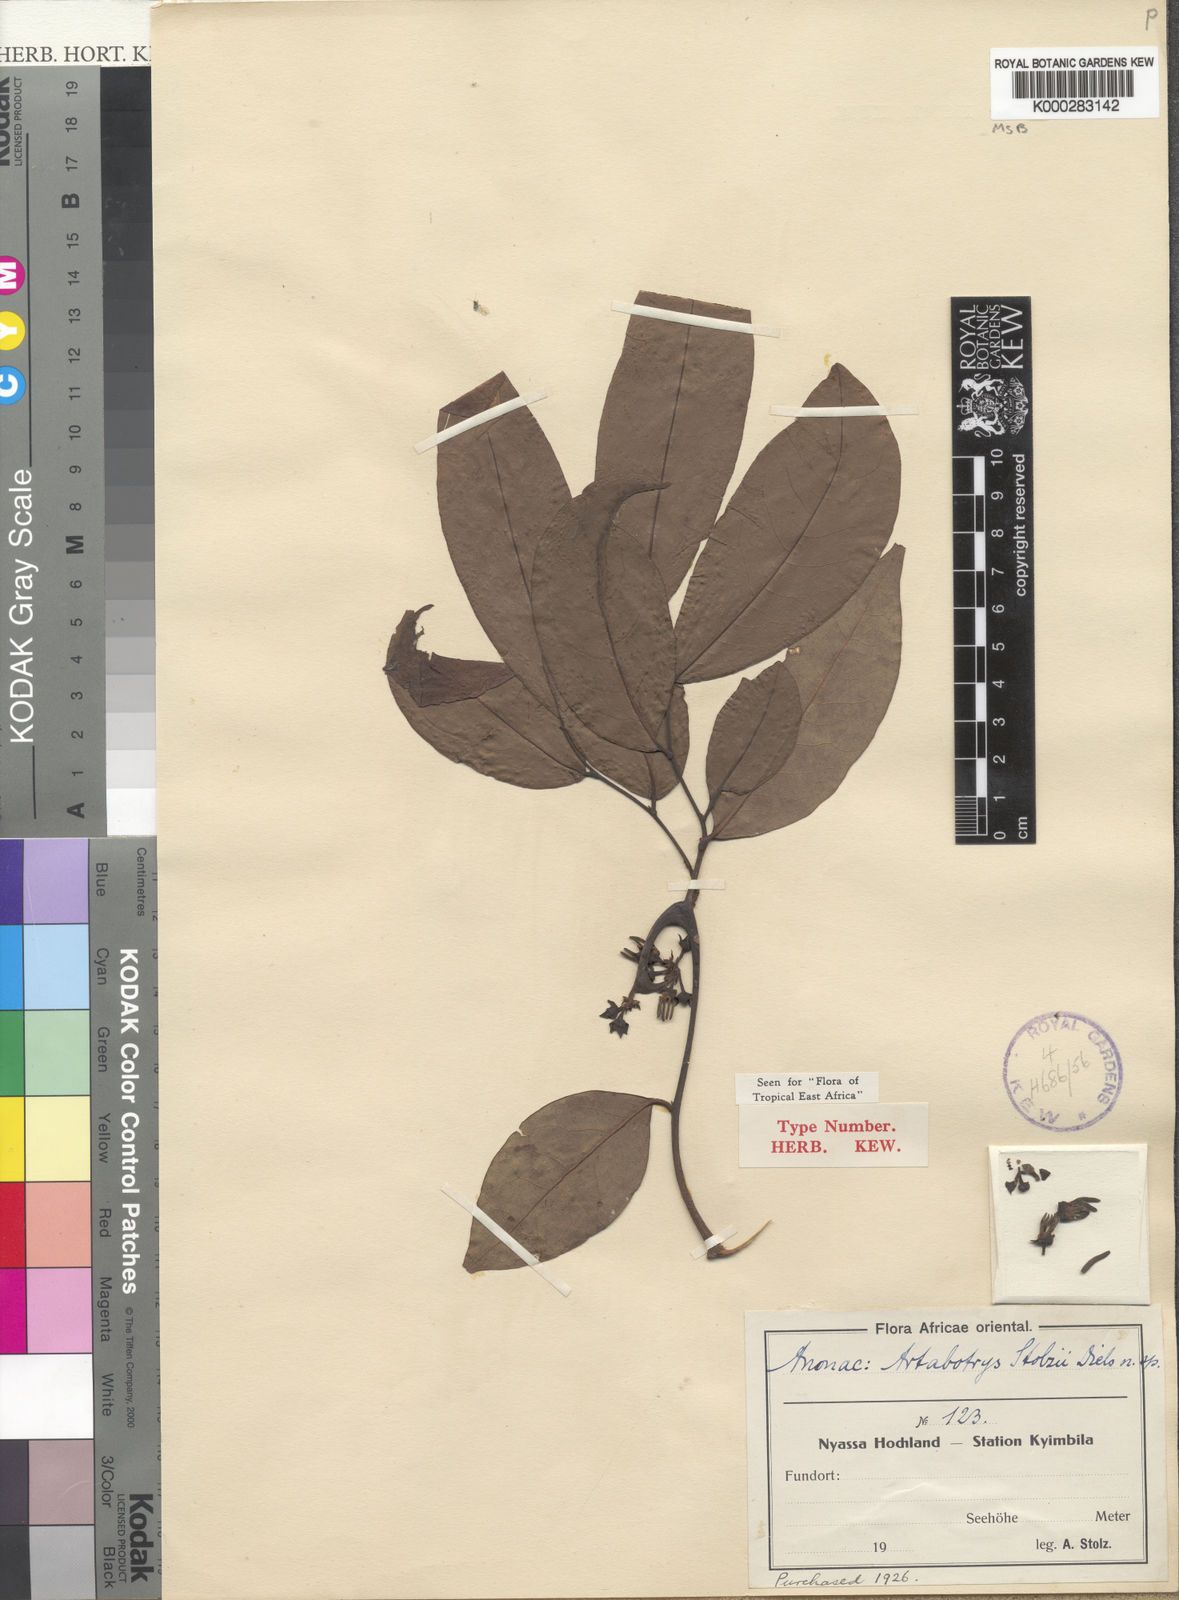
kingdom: Plantae
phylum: Tracheophyta
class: Magnoliopsida
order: Magnoliales
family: Annonaceae
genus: Artabotrys
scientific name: Artabotrys stolzii
